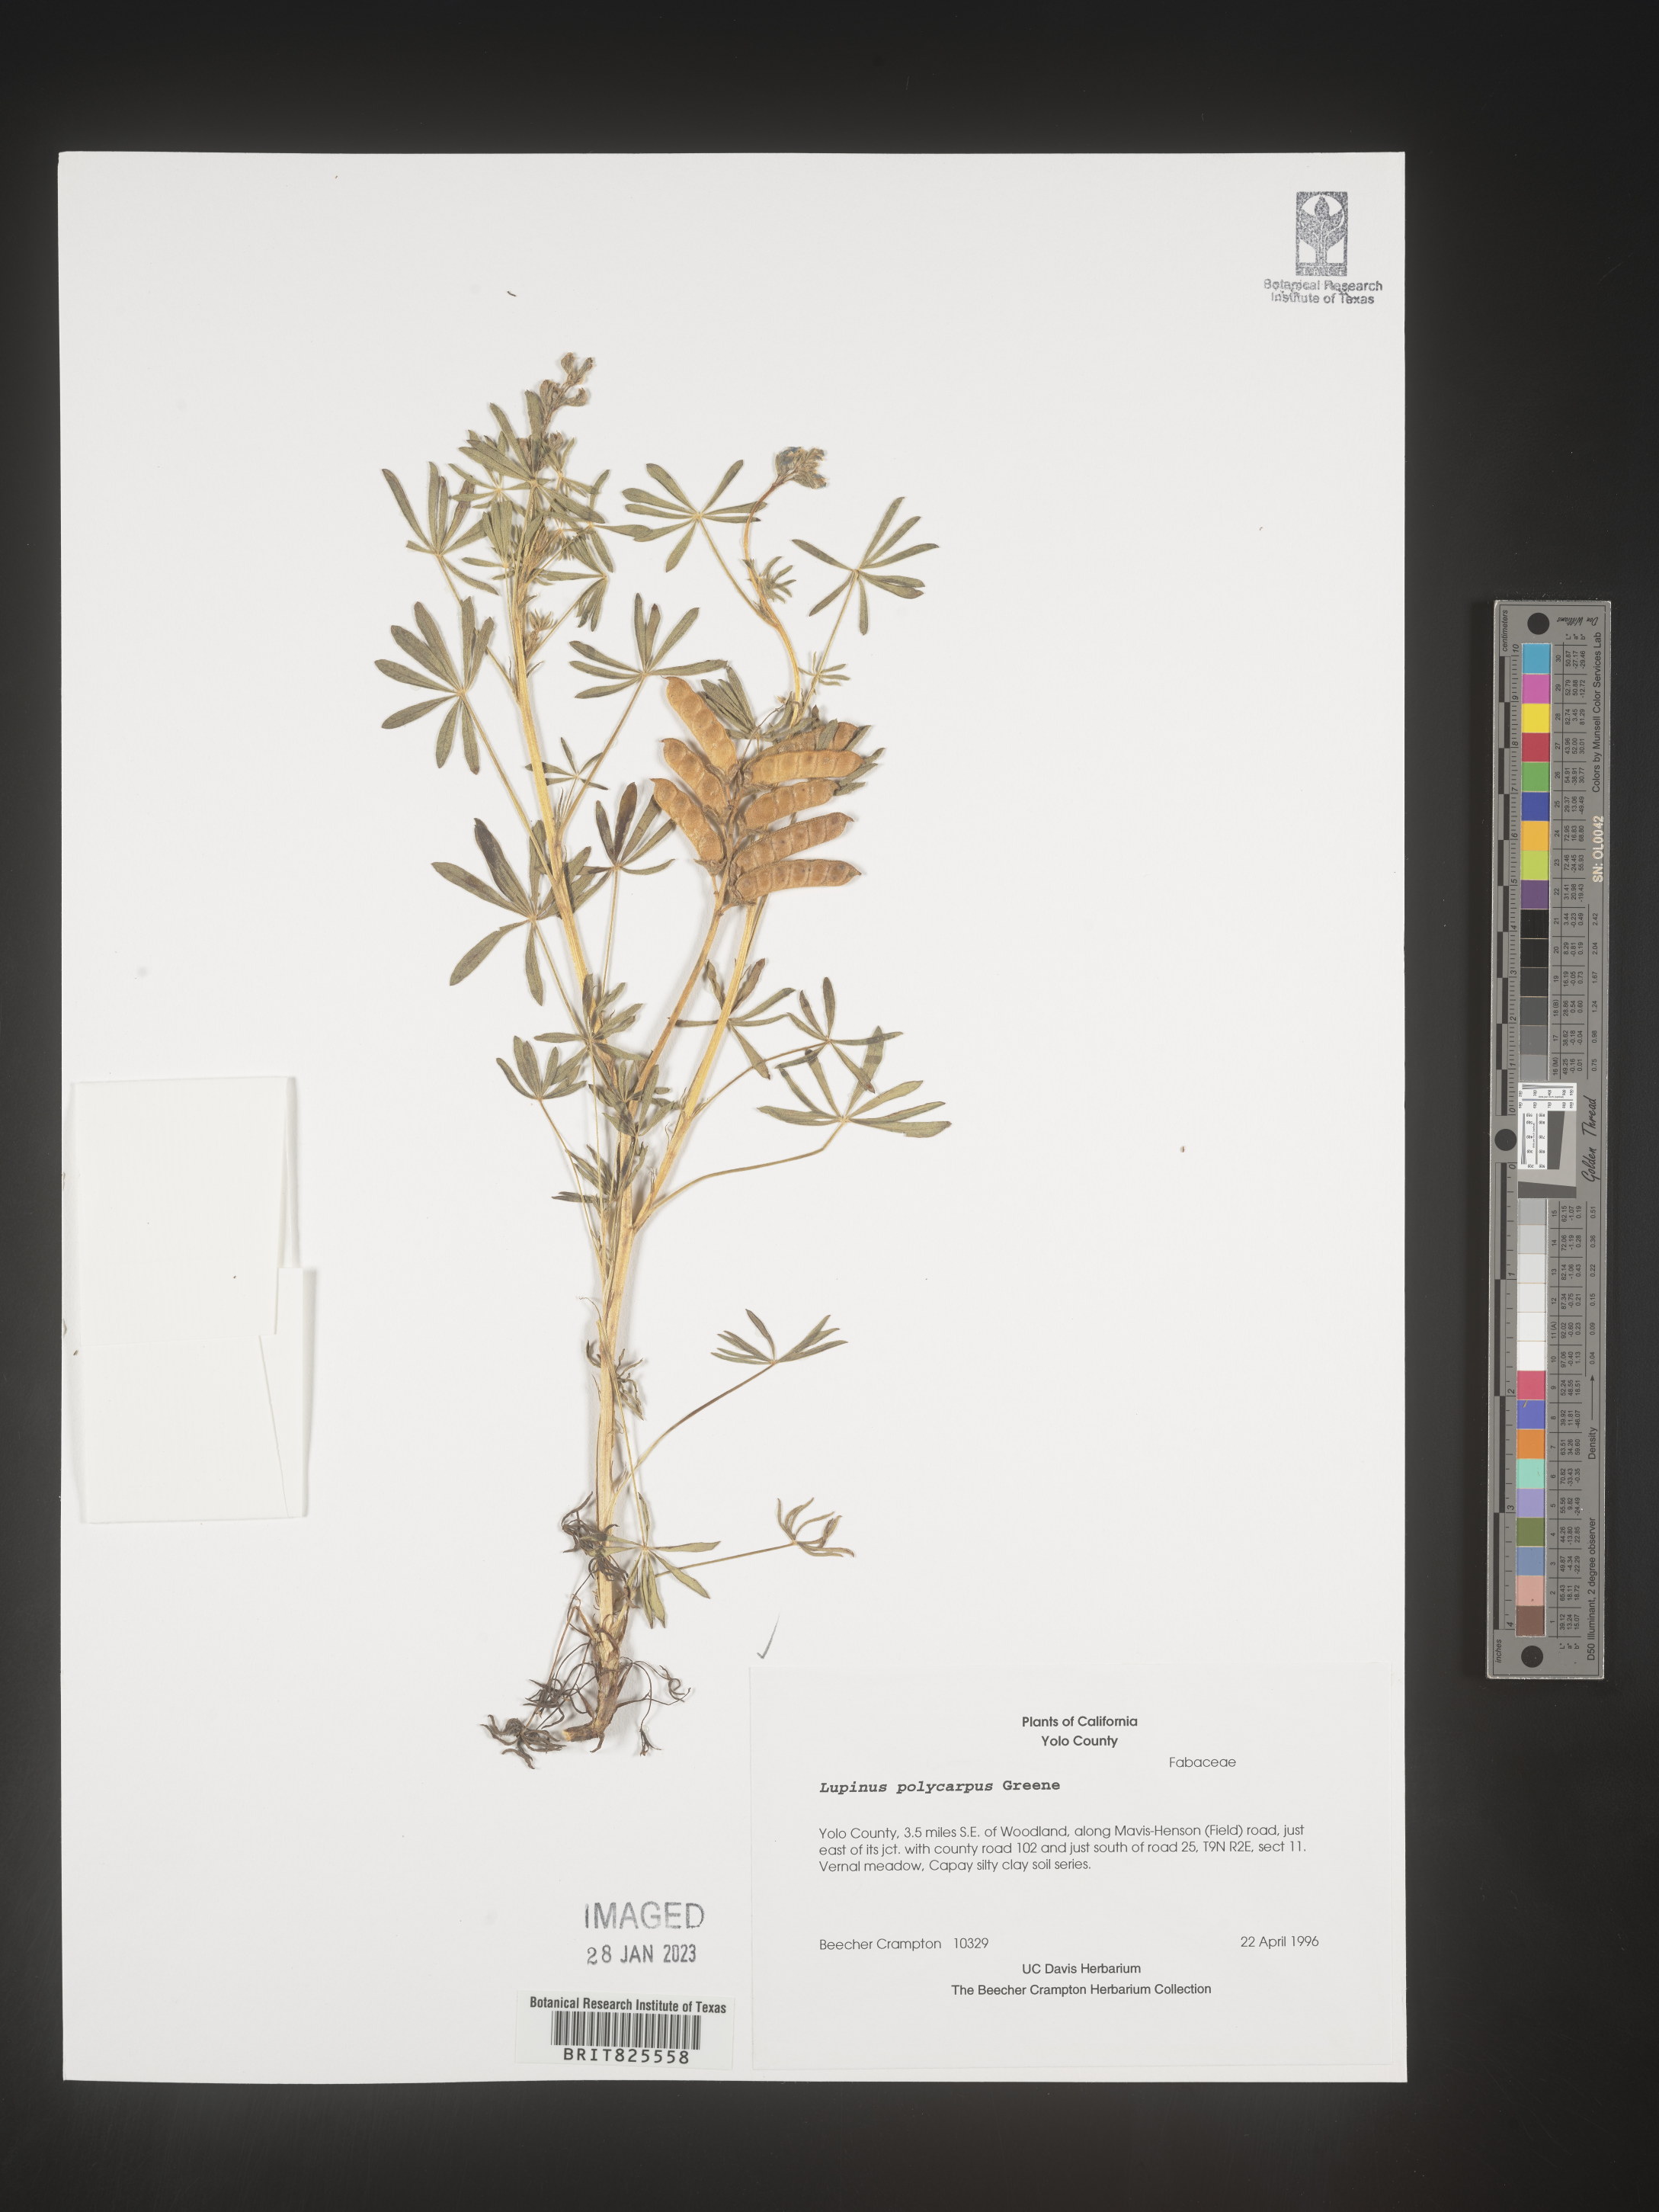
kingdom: Plantae
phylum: Tracheophyta
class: Magnoliopsida
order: Fabales
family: Fabaceae
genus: Lupinus
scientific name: Lupinus
